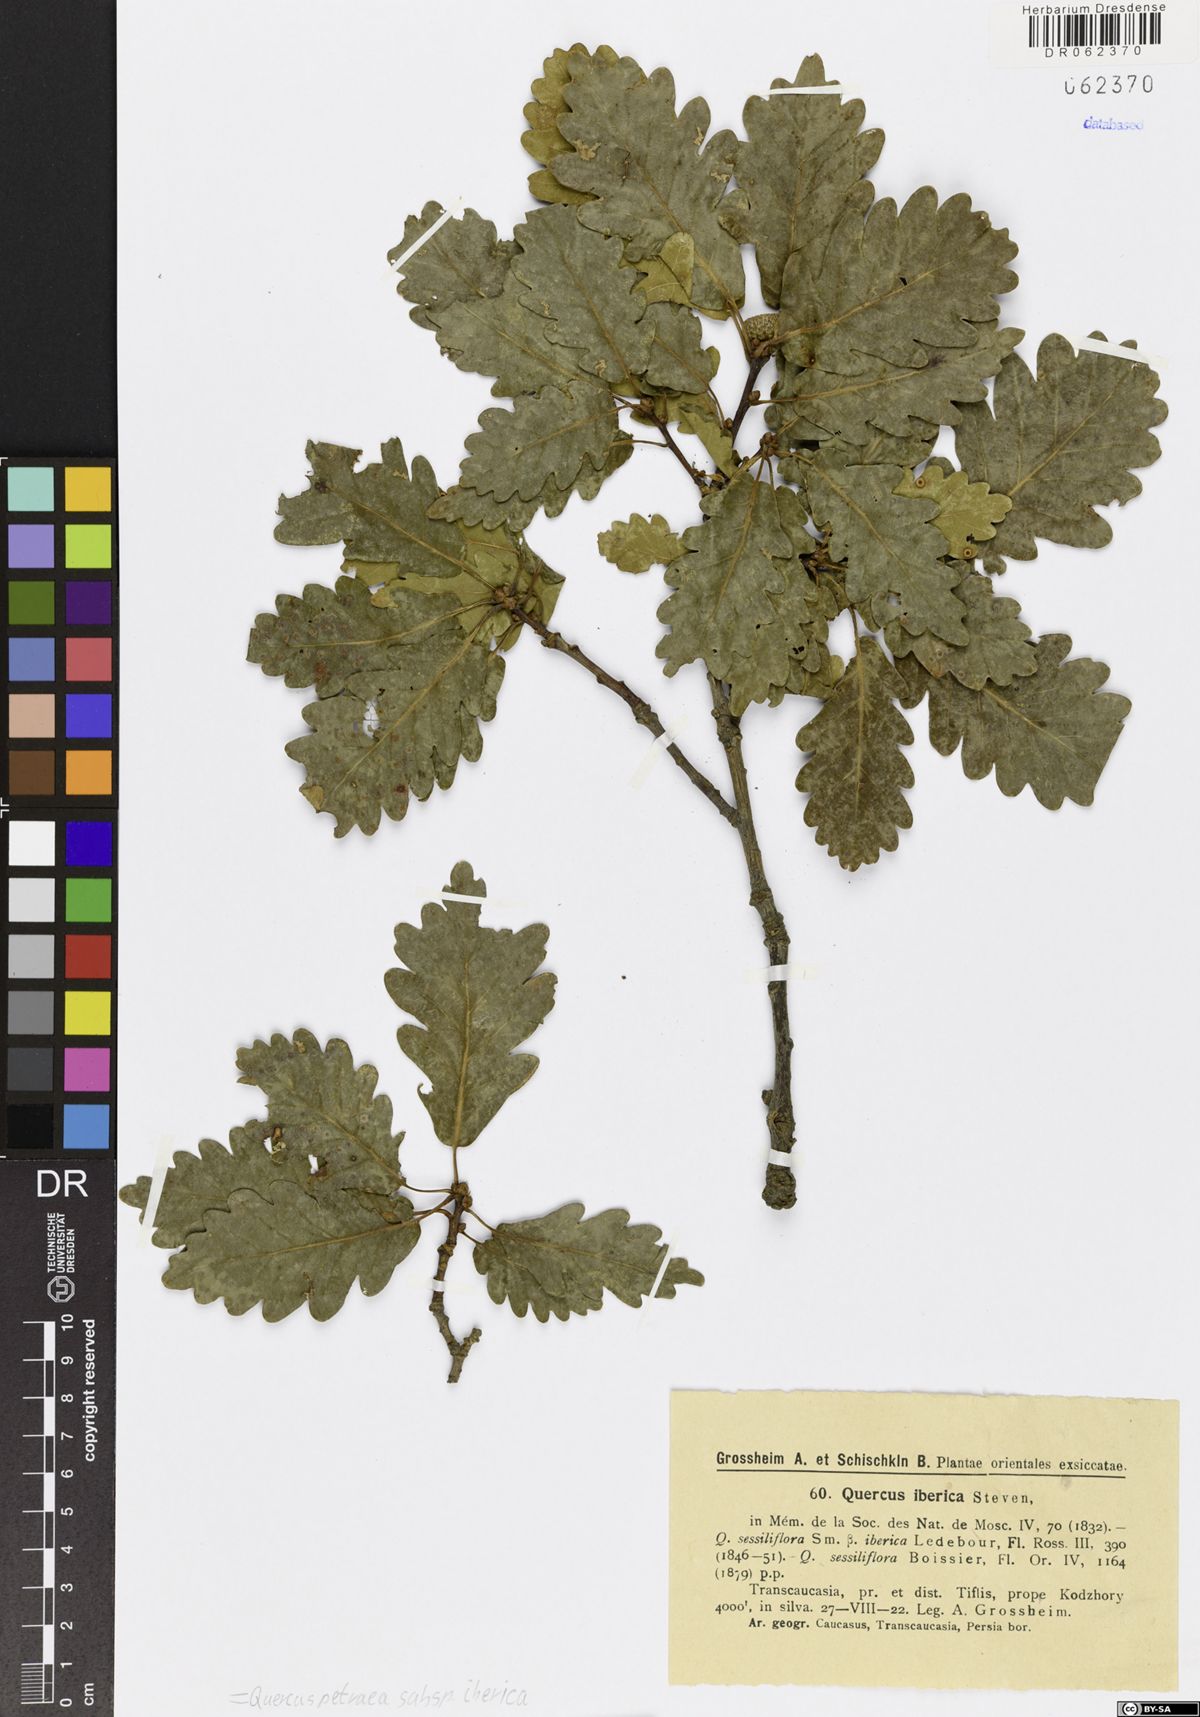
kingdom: Plantae
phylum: Tracheophyta
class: Magnoliopsida
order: Fagales
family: Fagaceae
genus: Quercus
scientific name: Quercus petraea
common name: Sessile oak
